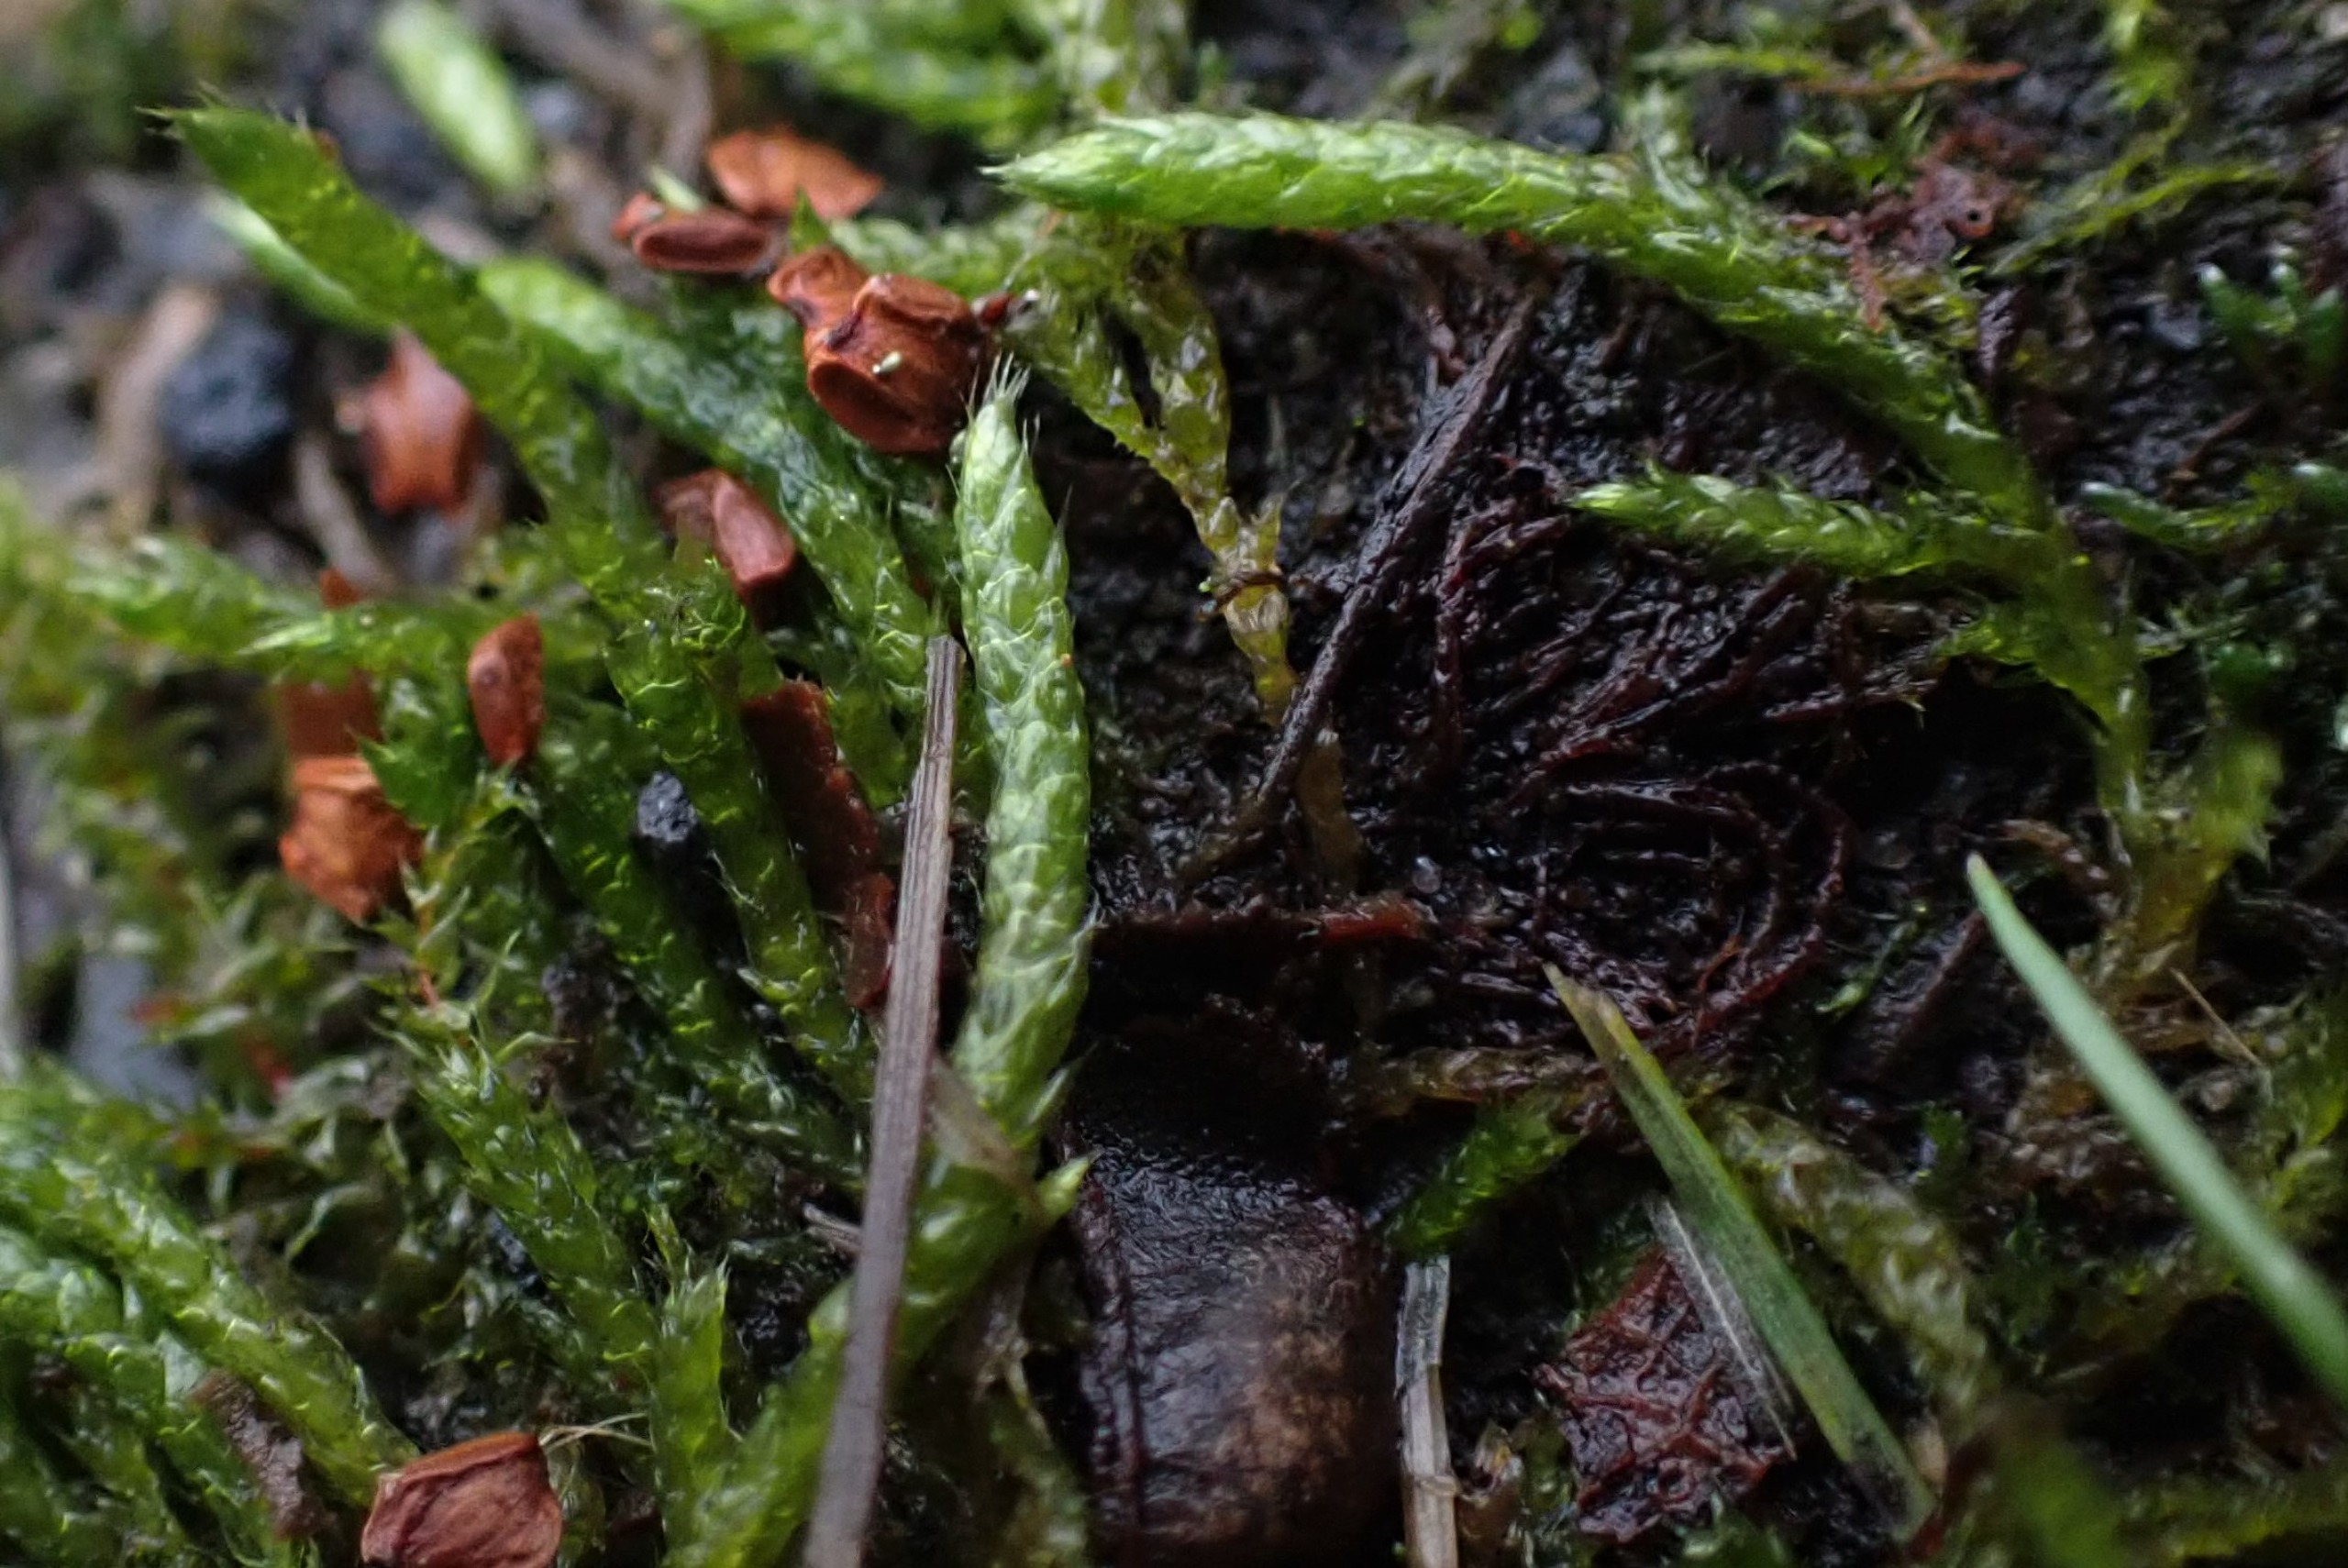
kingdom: Plantae
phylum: Bryophyta
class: Bryopsida
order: Hypnales
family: Brachytheciaceae
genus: Brachythecium
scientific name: Brachythecium albicans
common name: Hvidlig kortkapsel
